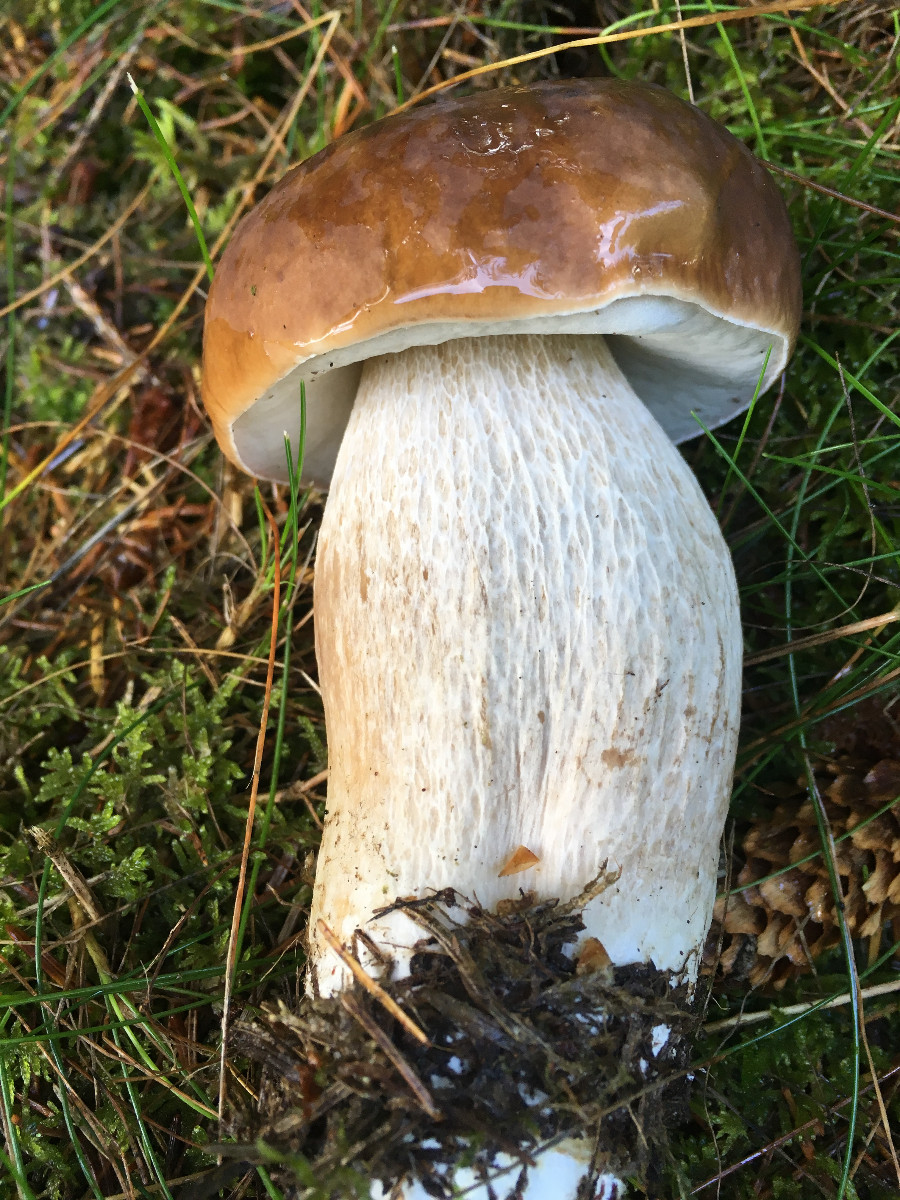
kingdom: Fungi
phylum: Basidiomycota
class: Agaricomycetes
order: Boletales
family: Boletaceae
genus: Boletus
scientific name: Boletus edulis
